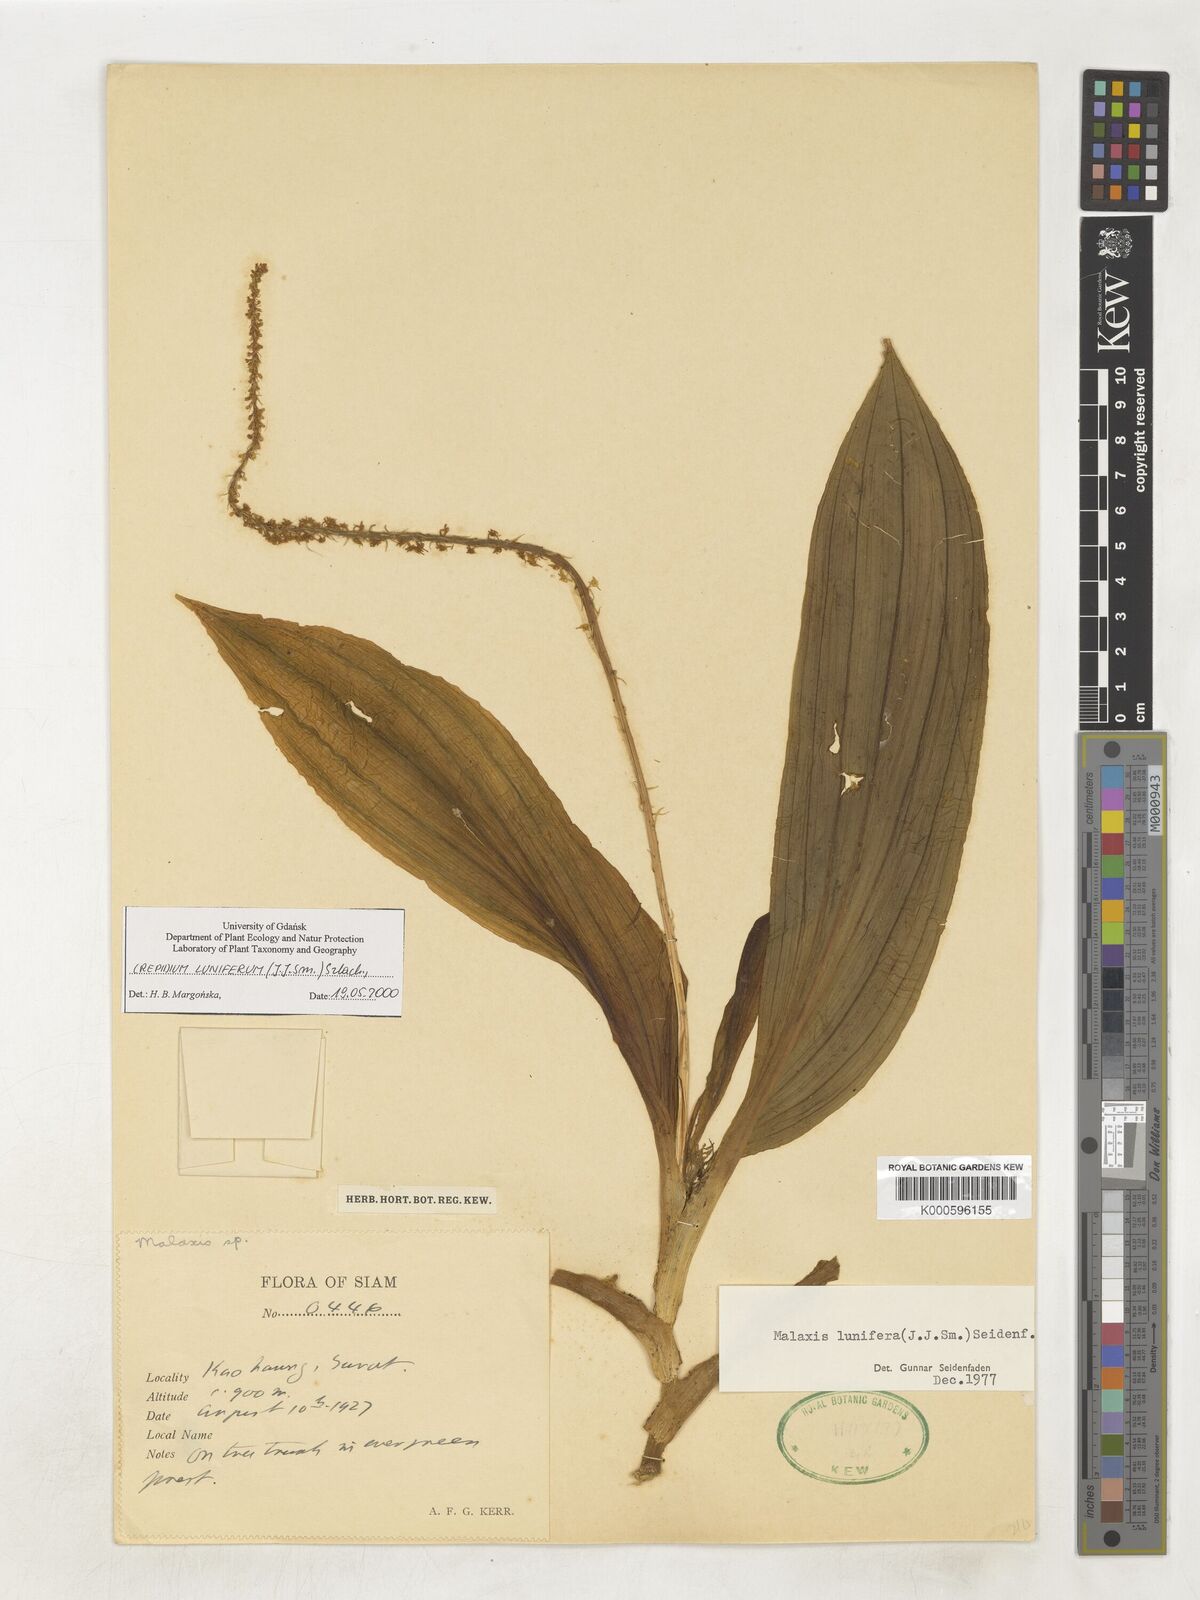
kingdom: Plantae
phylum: Tracheophyta
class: Liliopsida
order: Asparagales
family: Orchidaceae
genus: Crepidium
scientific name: Crepidium luniferum
